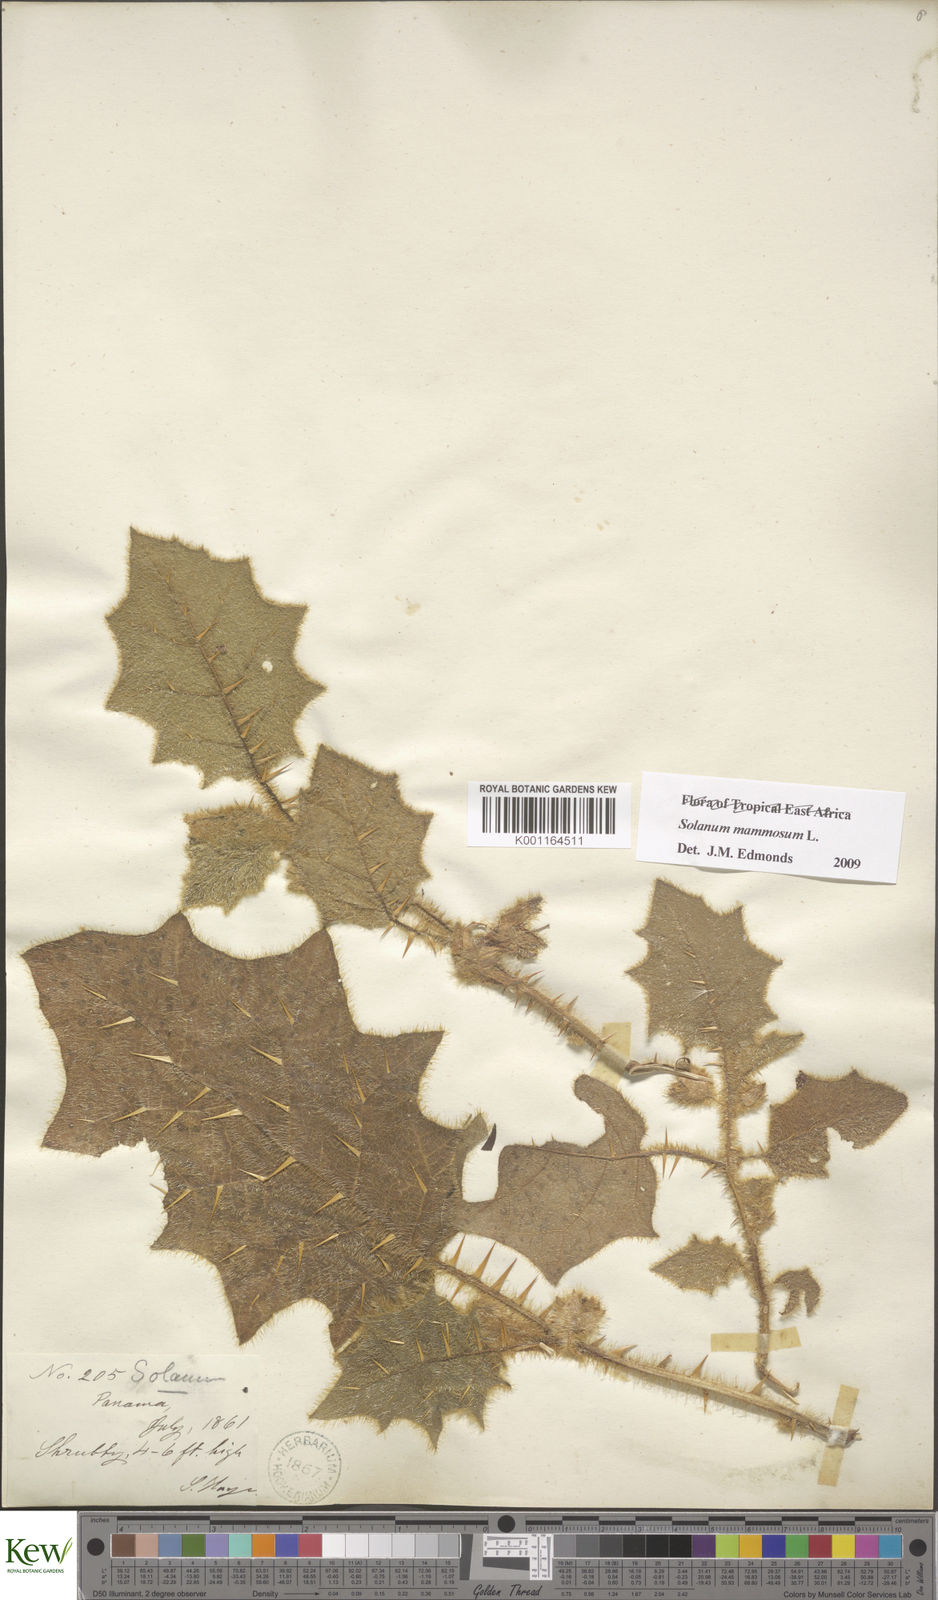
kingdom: Plantae
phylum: Tracheophyta
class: Magnoliopsida
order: Solanales
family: Solanaceae
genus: Solanum
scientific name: Solanum mammosum
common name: Nipple fruit
